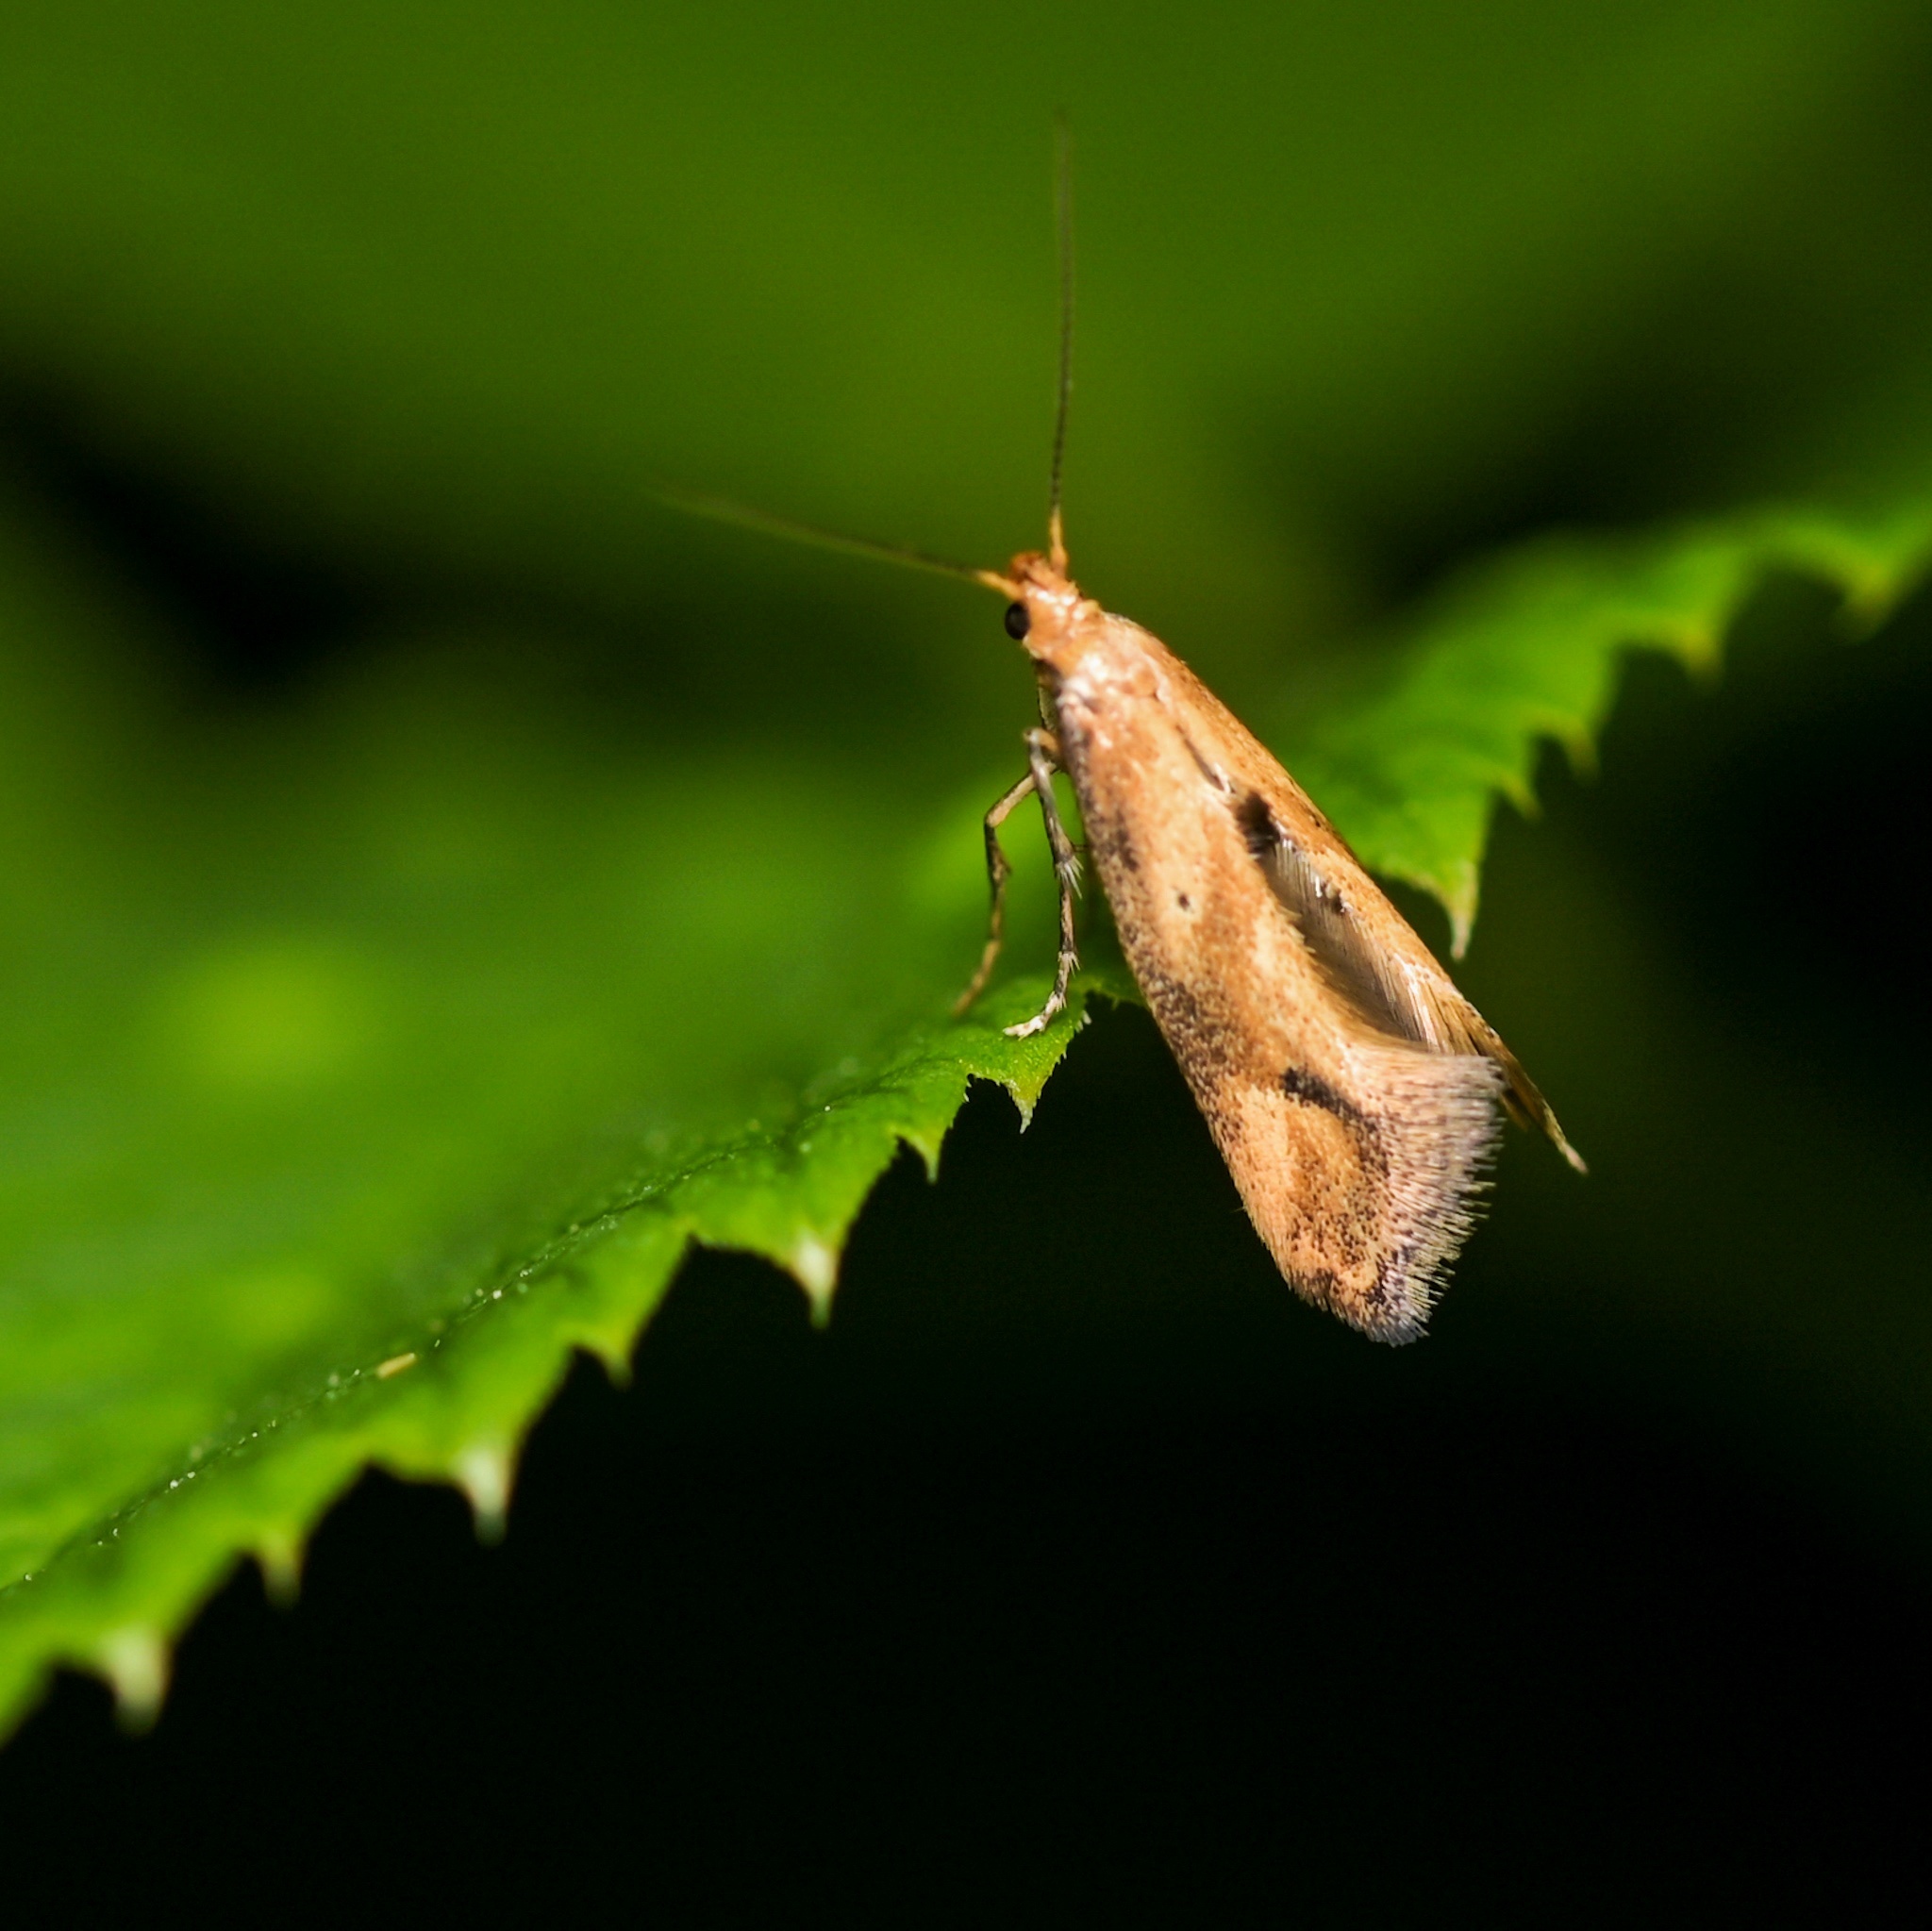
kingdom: Animalia
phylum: Arthropoda
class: Insecta
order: Lepidoptera
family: Epermeniidae
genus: Epermenia
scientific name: Epermenia illigerella
